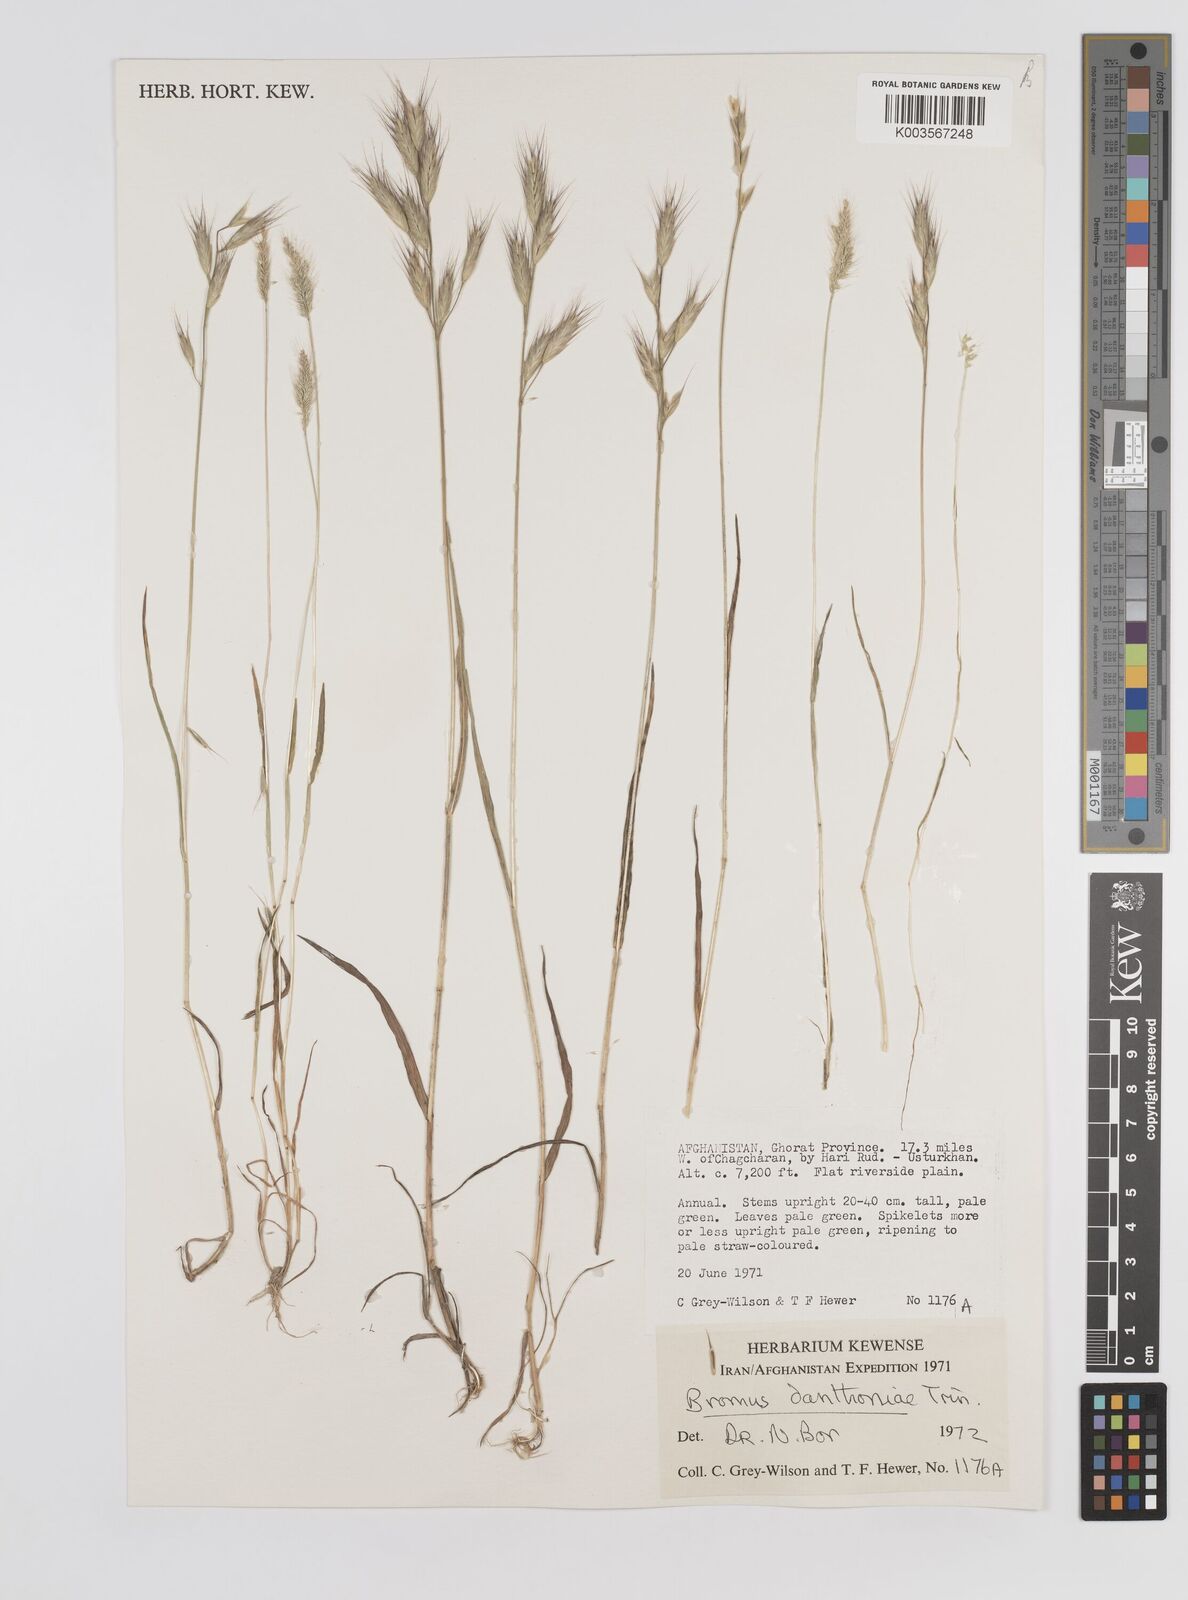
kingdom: Plantae
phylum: Tracheophyta
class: Liliopsida
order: Poales
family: Poaceae
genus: Bromus
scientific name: Bromus danthoniae
